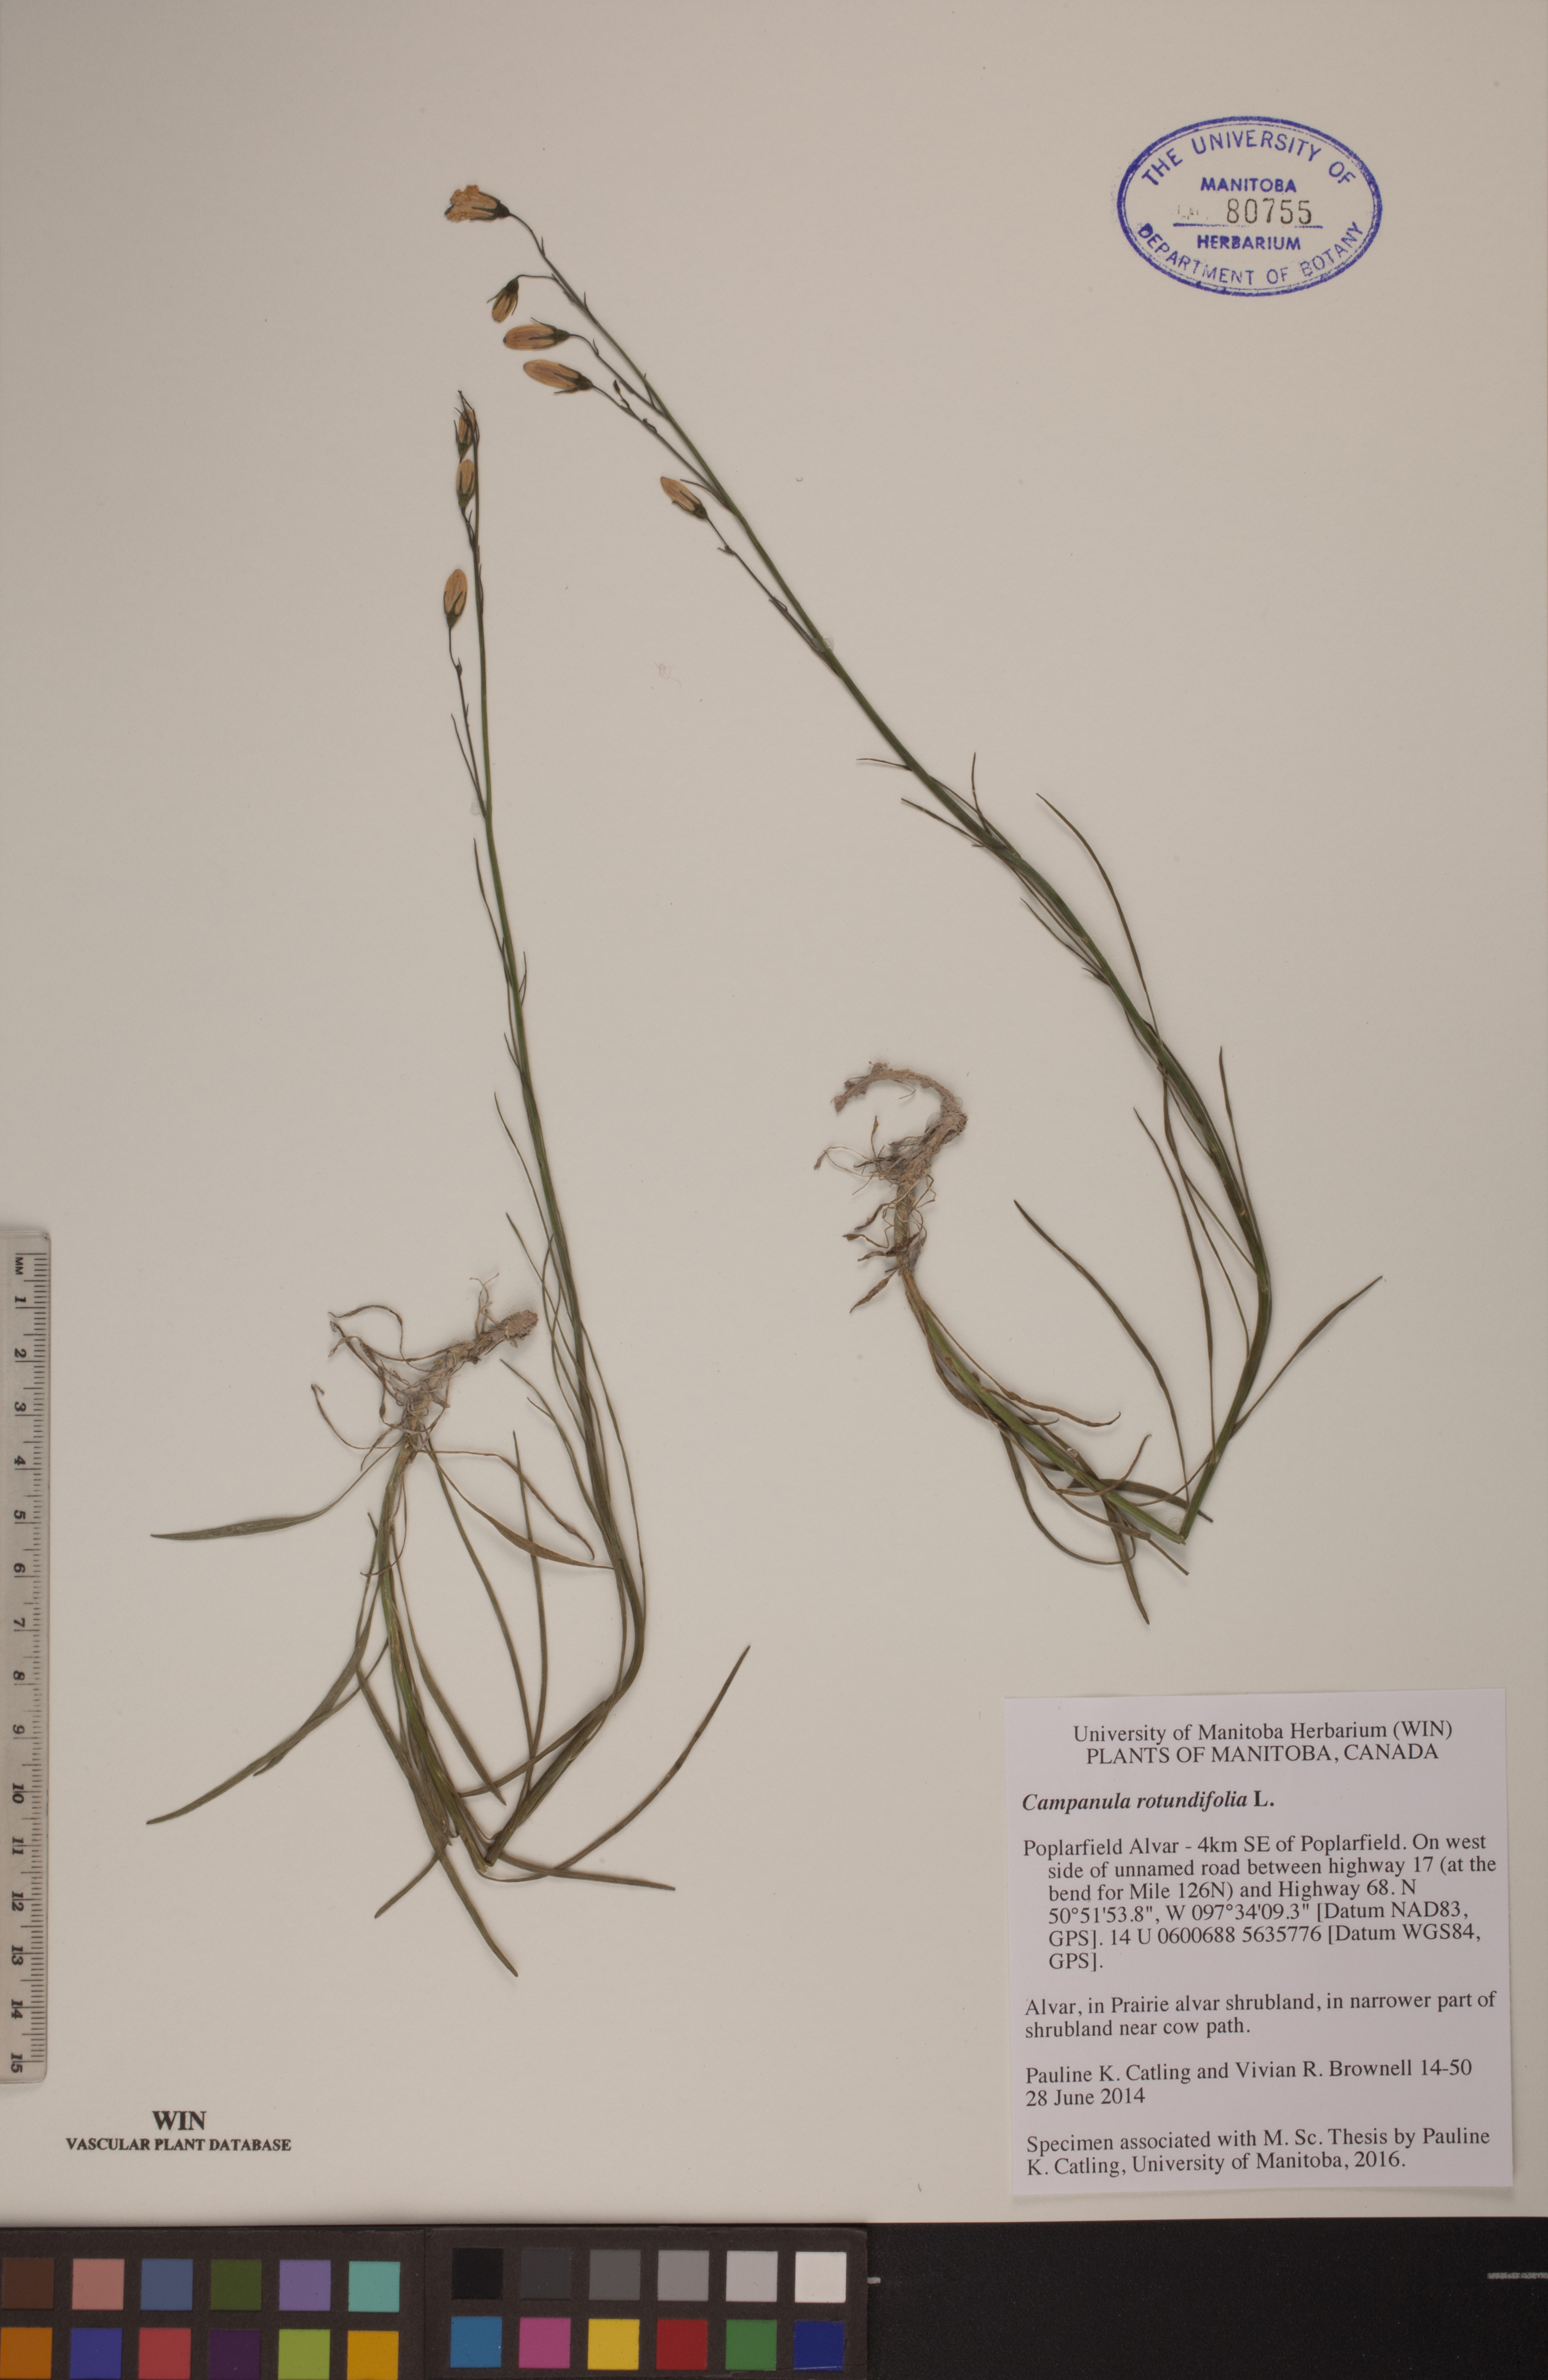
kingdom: Plantae
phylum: Tracheophyta
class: Magnoliopsida
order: Asterales
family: Campanulaceae
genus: Campanula
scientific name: Campanula rotundifolia
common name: Harebell
